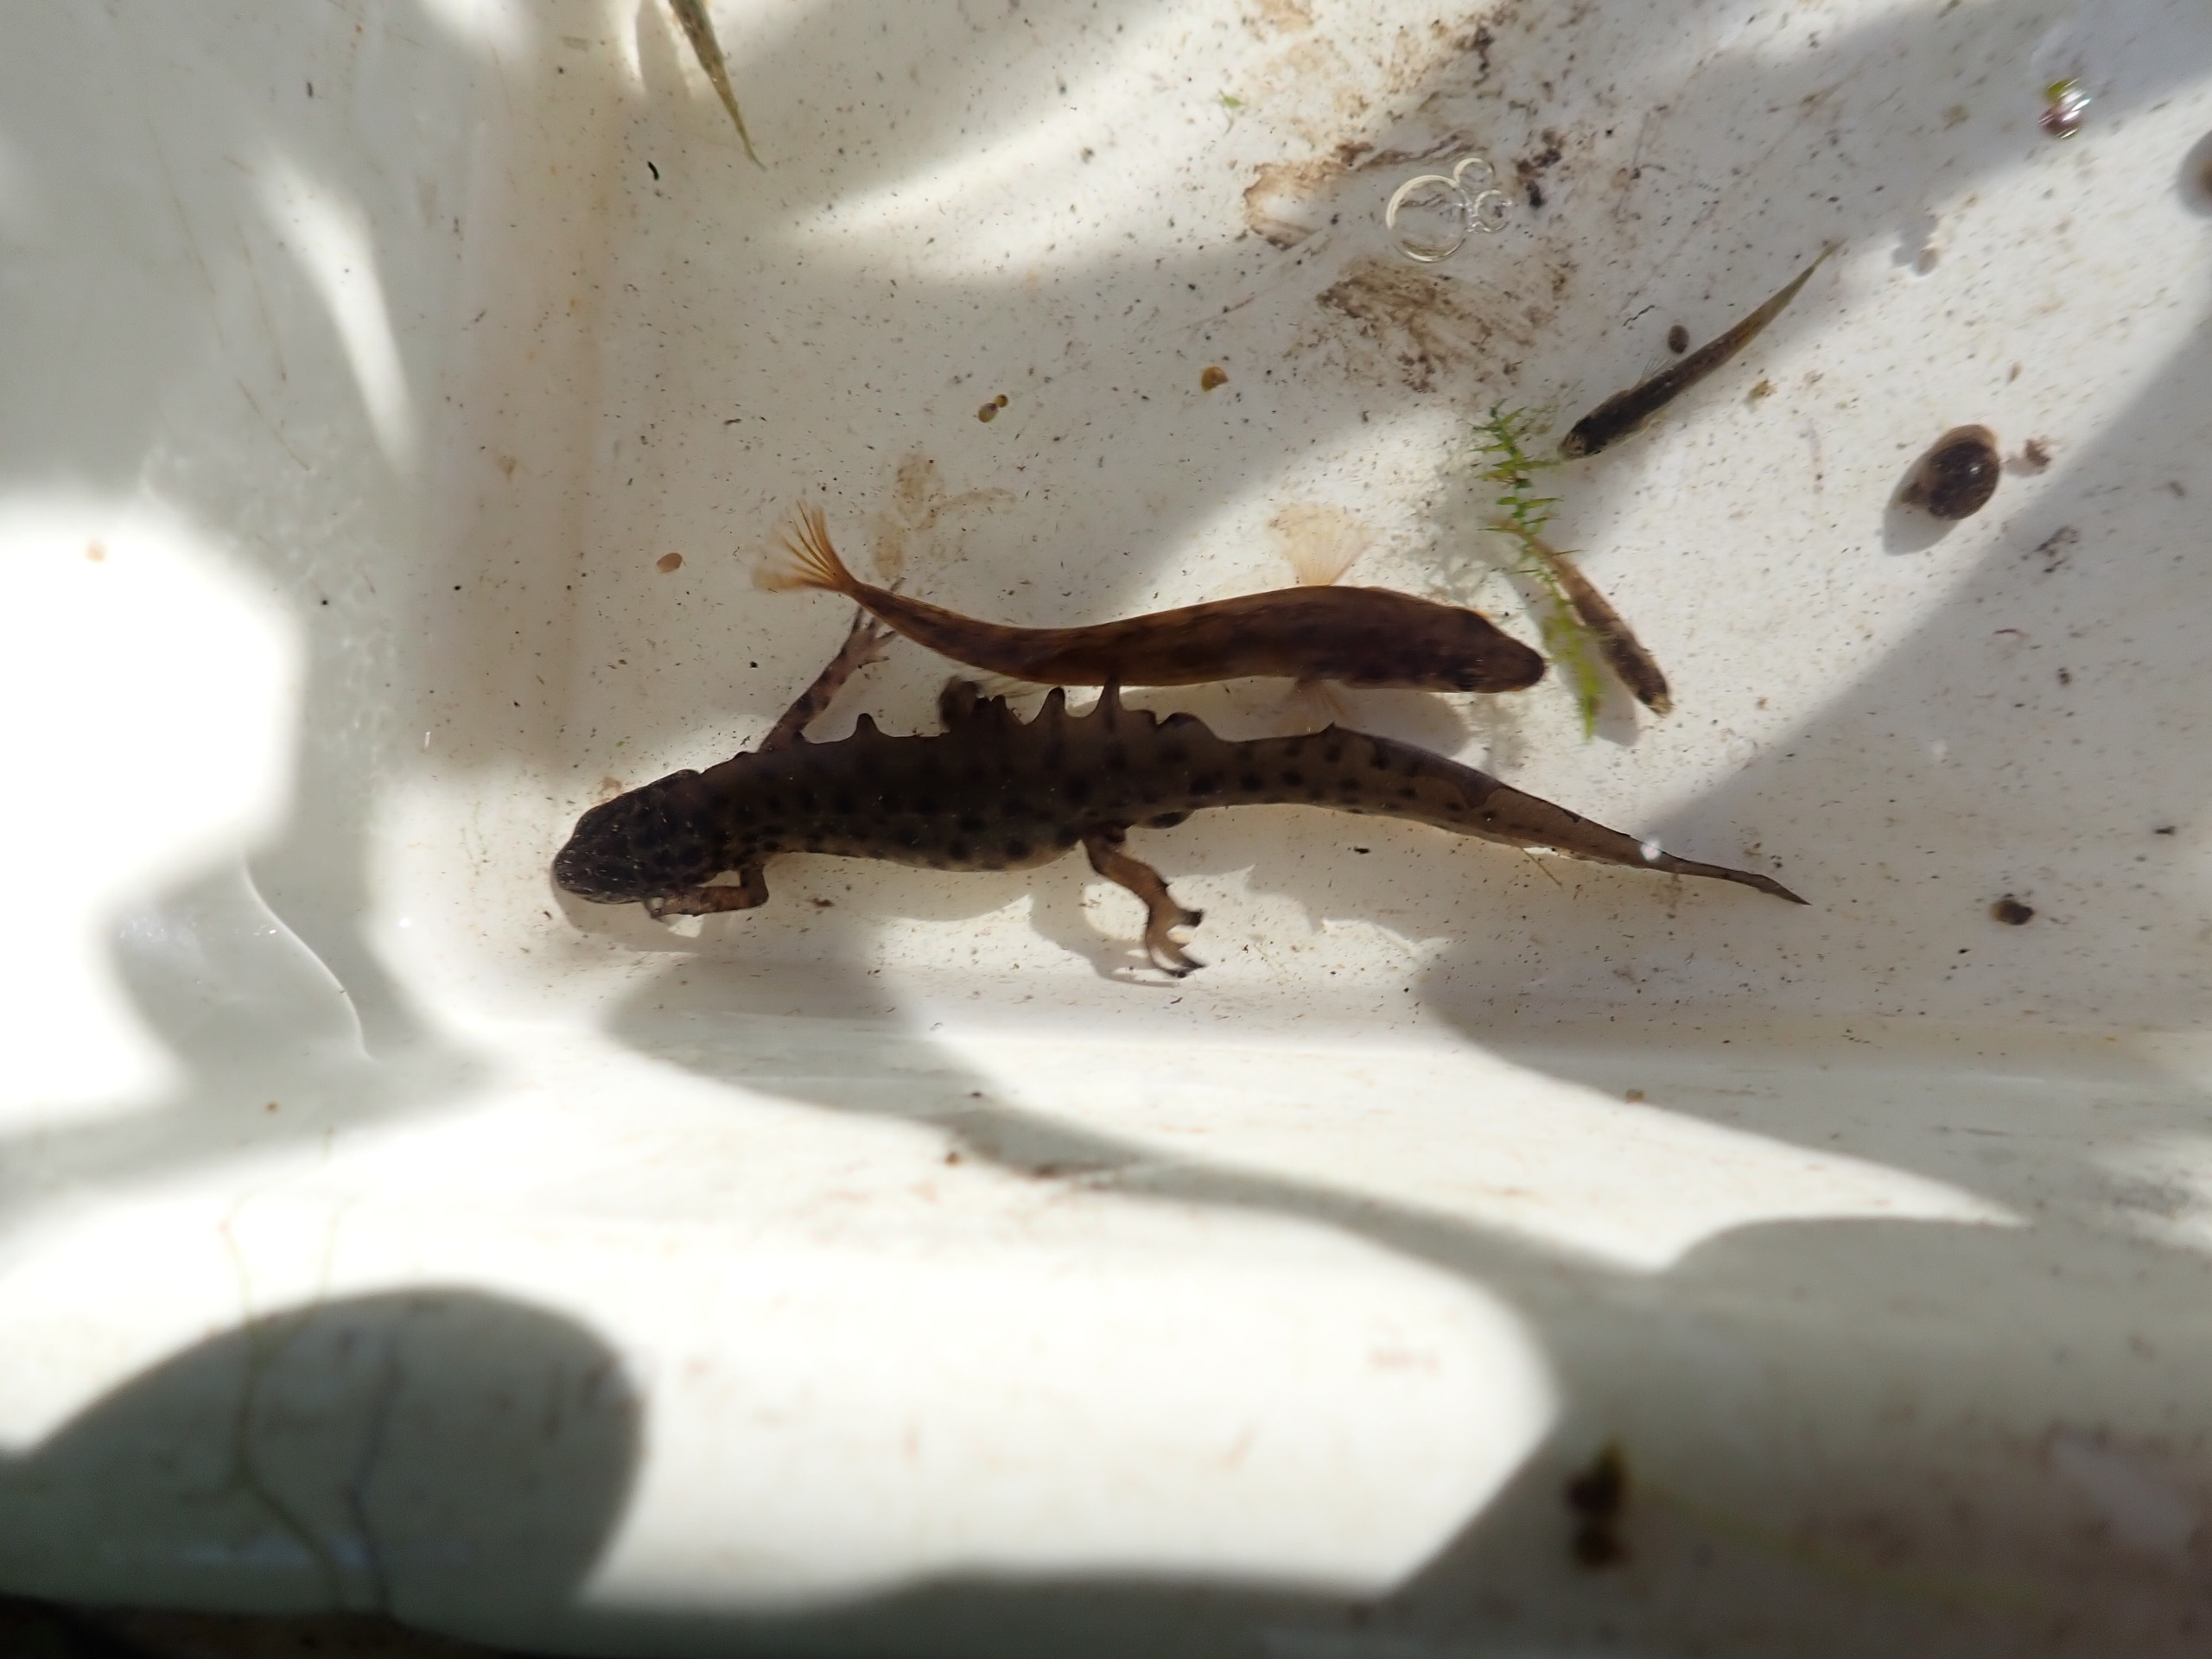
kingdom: Animalia
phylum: Chordata
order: Gasterosteiformes
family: Gasterosteidae
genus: Pungitius
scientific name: Pungitius pungitius
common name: Nipigget hundestejle
